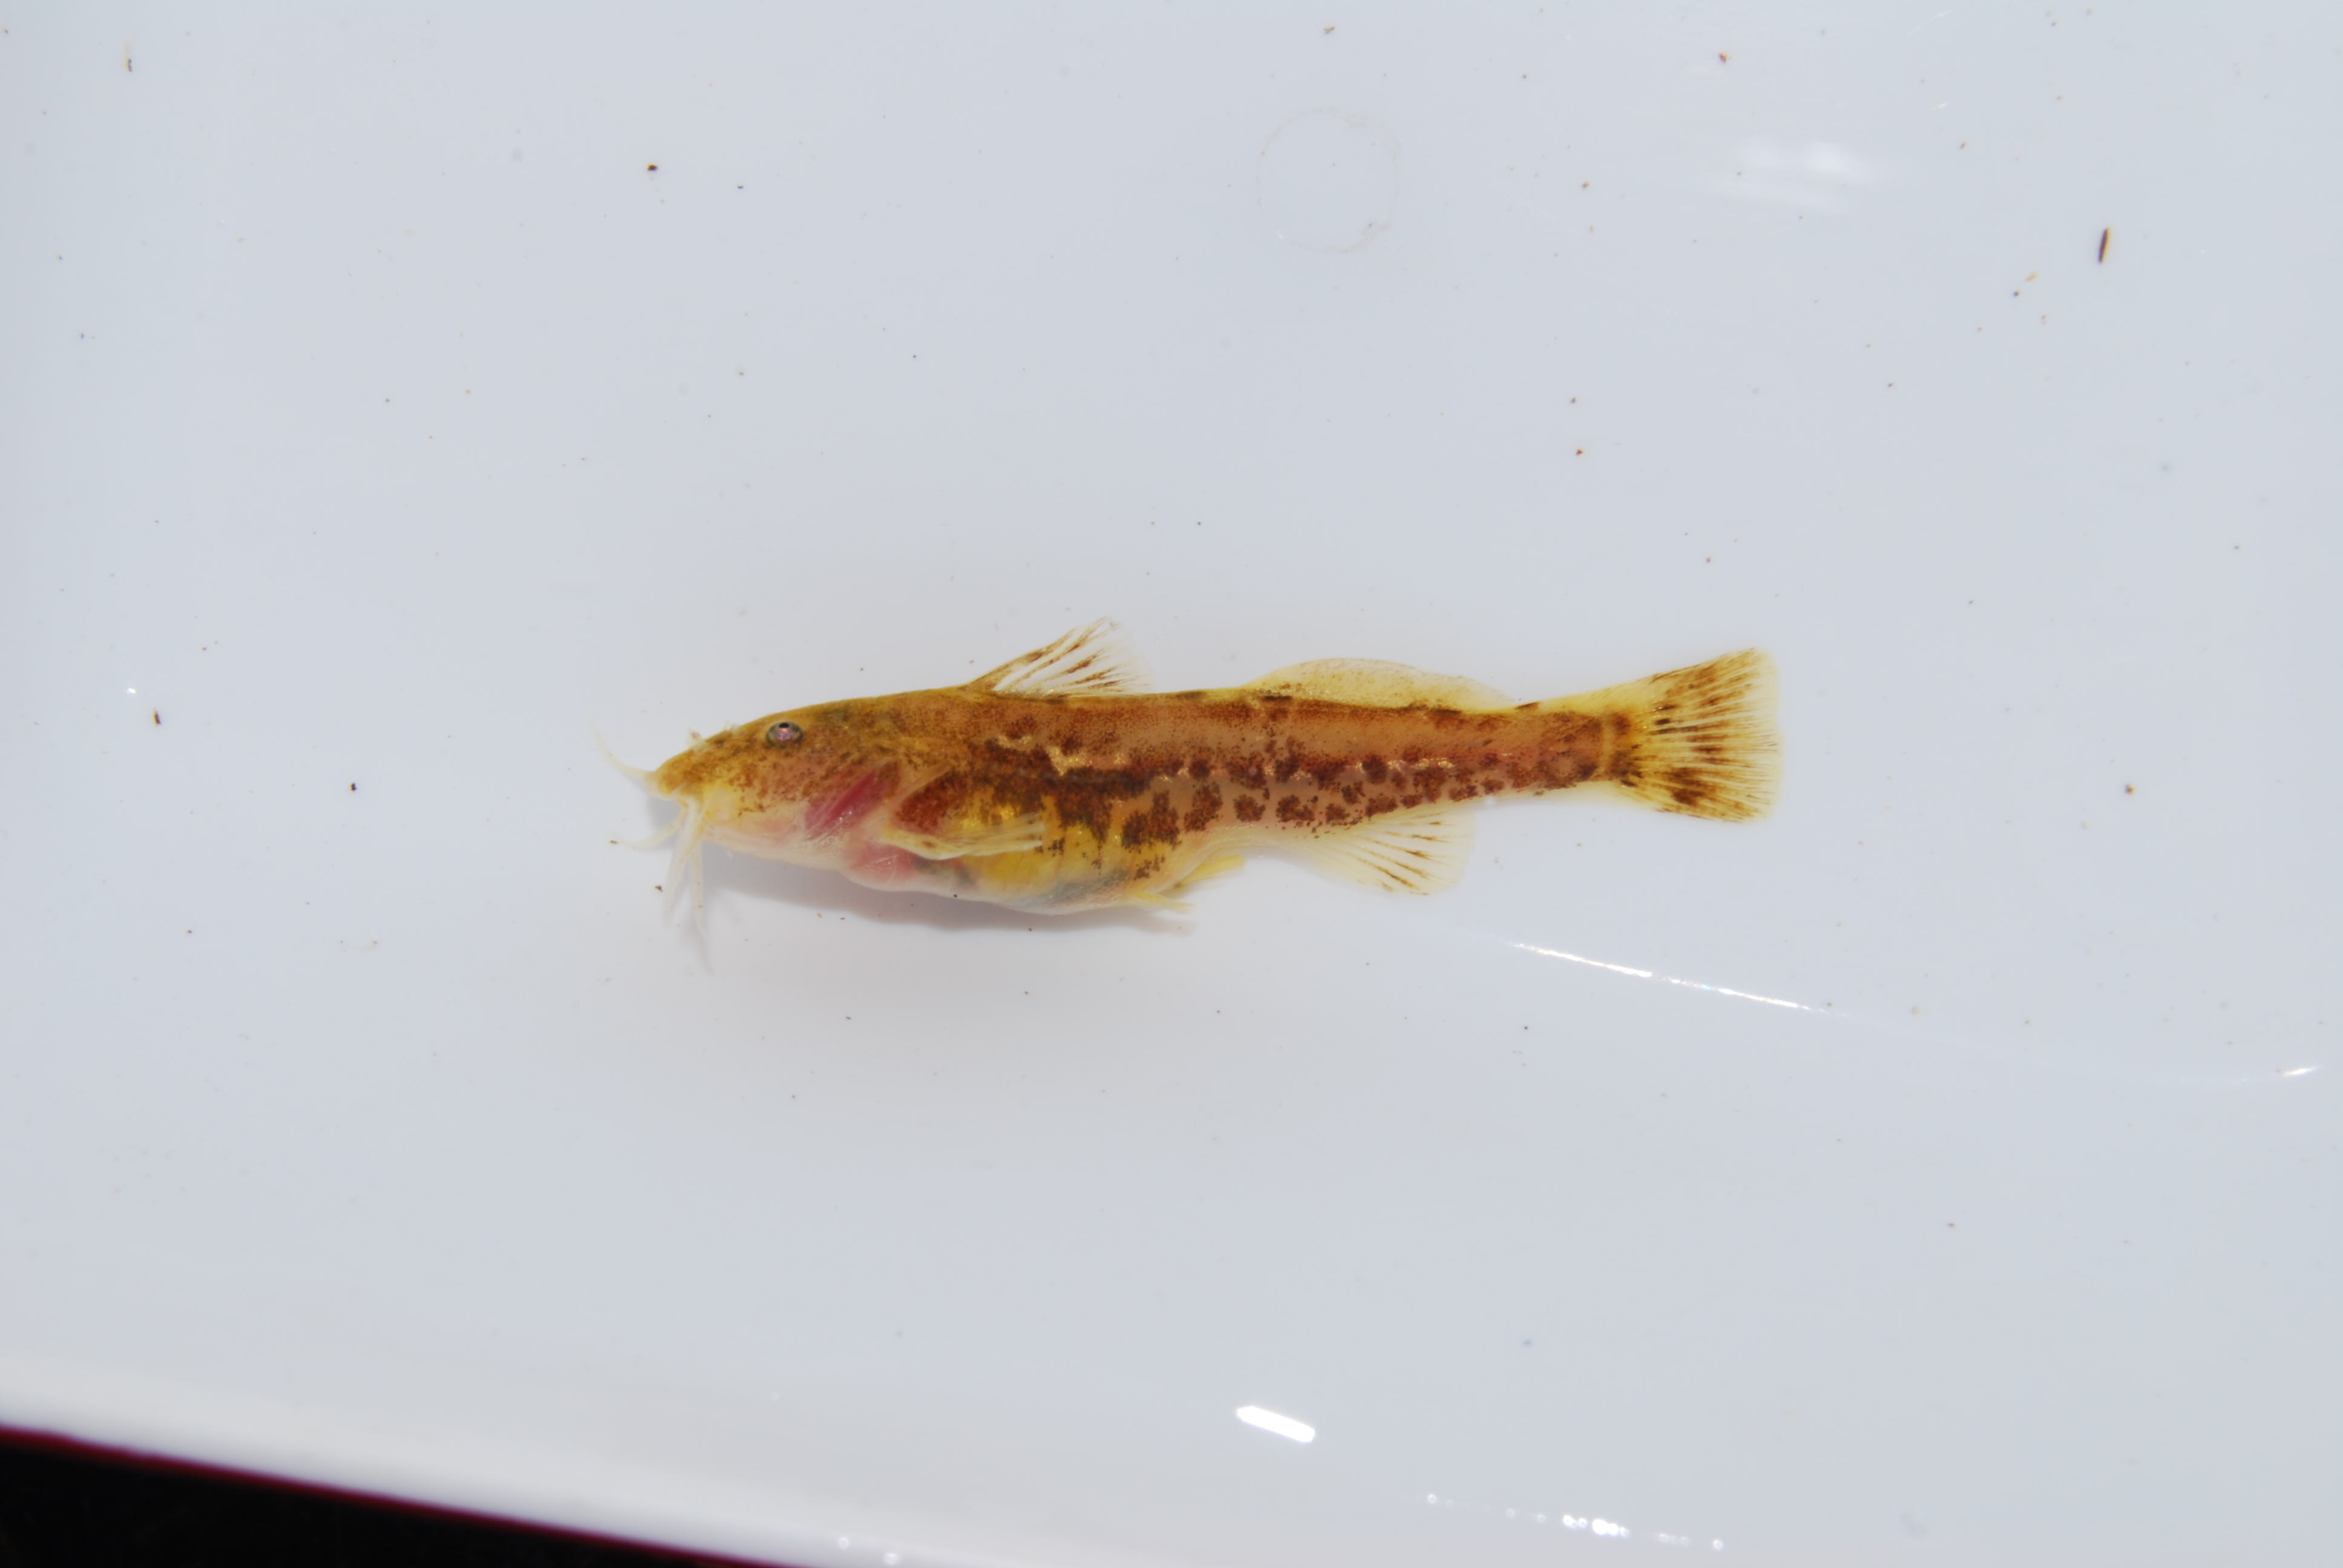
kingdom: Animalia
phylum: Chordata
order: Characiformes
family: Distichodontidae
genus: Nannocharax
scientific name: Nannocharax macropterus
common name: Broad-barred citharine
